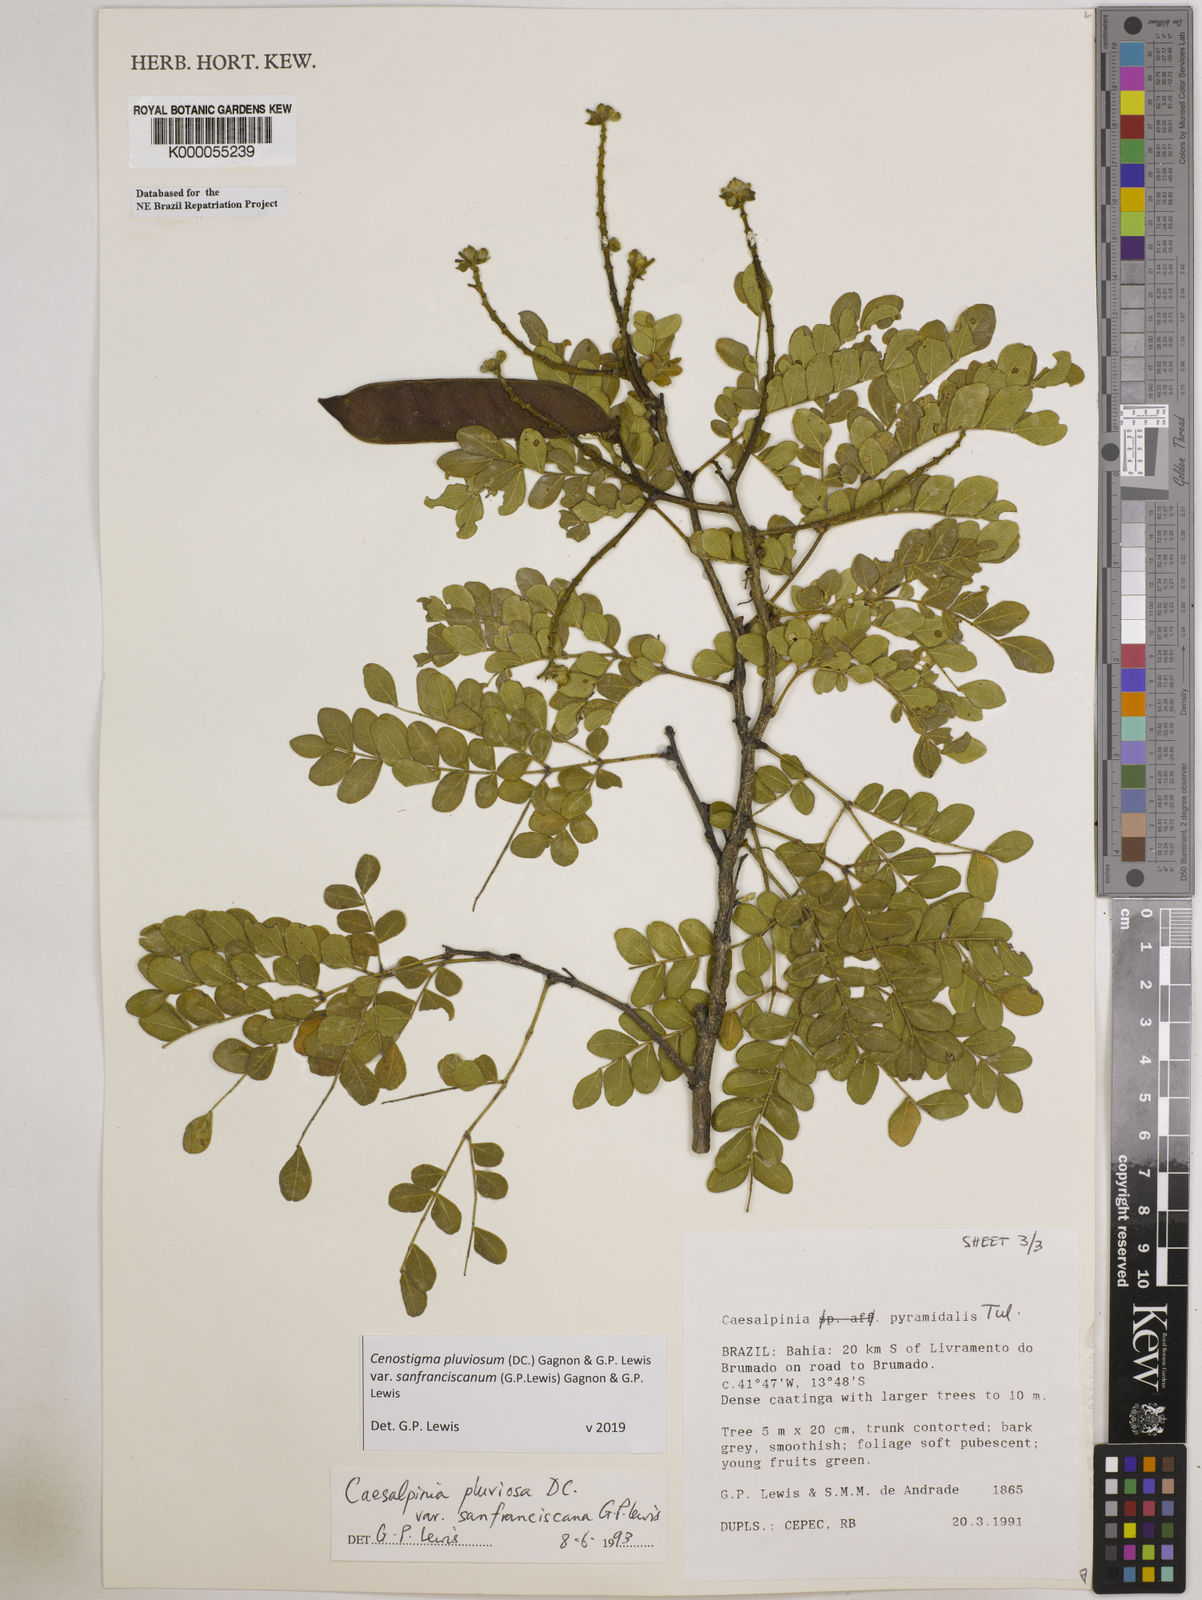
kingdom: Plantae
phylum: Tracheophyta
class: Magnoliopsida
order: Fabales
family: Fabaceae
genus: Cenostigma
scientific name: Cenostigma pluviosum
